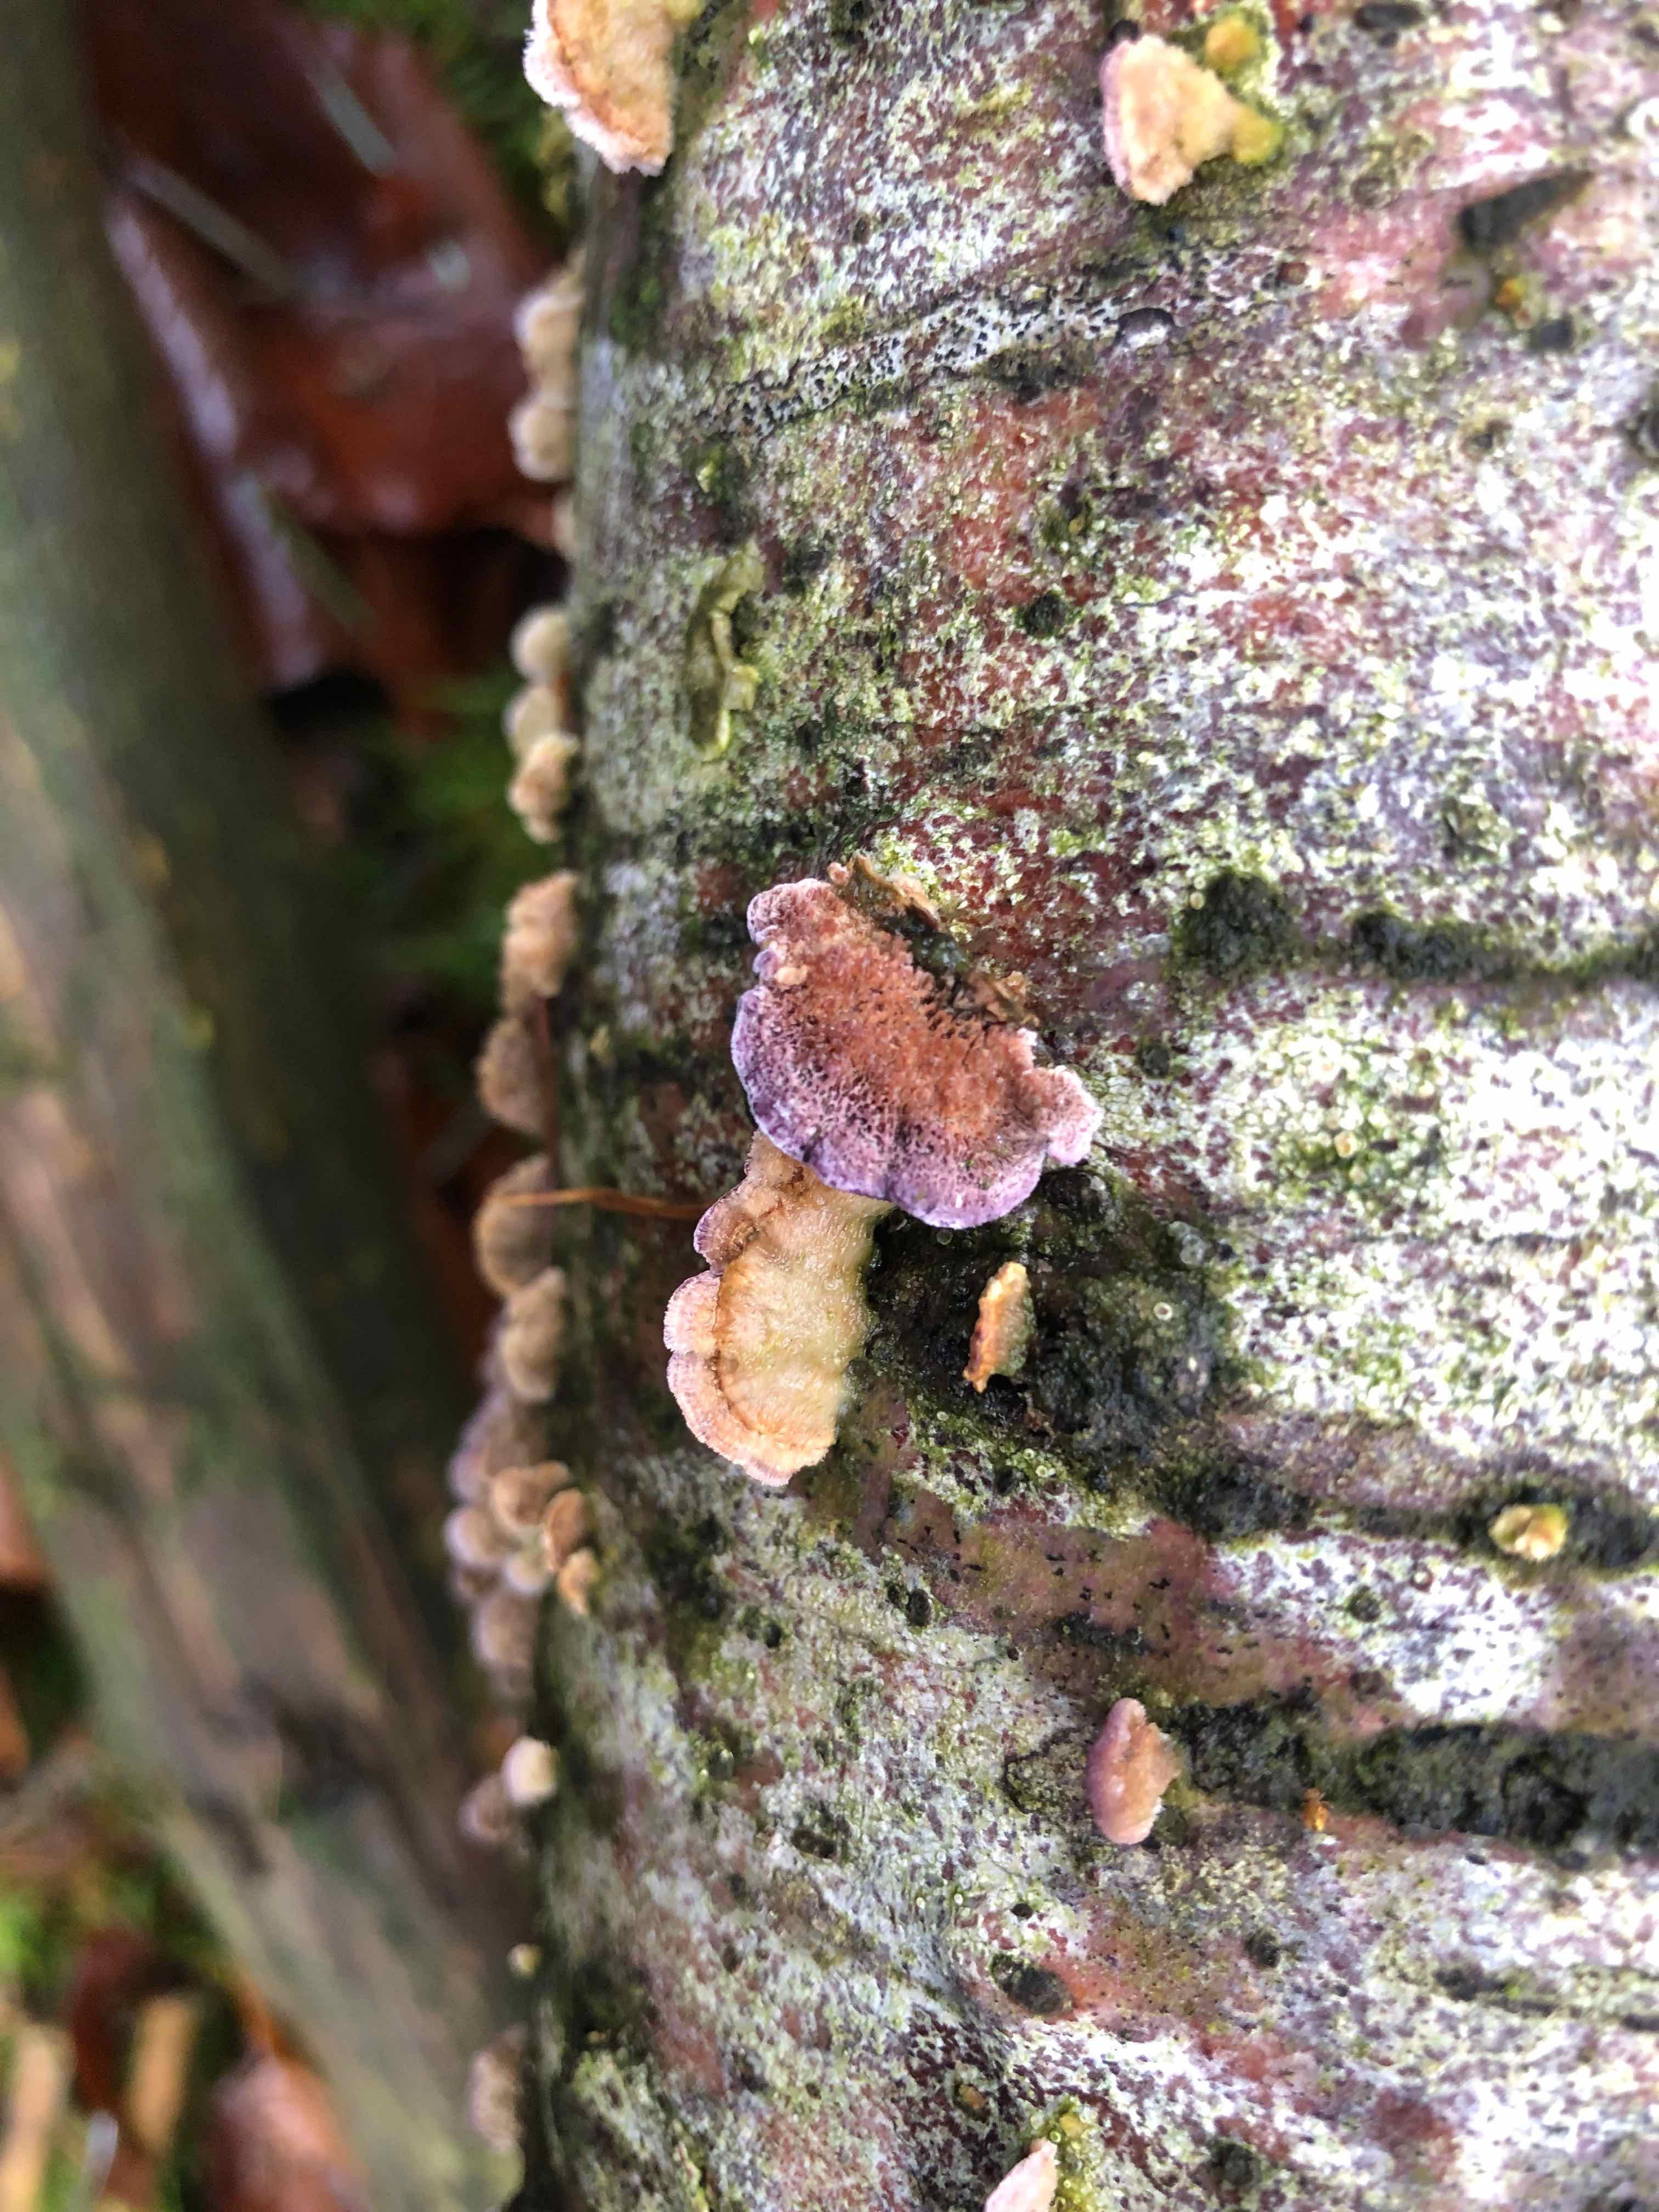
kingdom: Fungi
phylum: Basidiomycota
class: Agaricomycetes
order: Hymenochaetales
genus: Trichaptum
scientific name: Trichaptum abietinum
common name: almindelig violporesvamp
